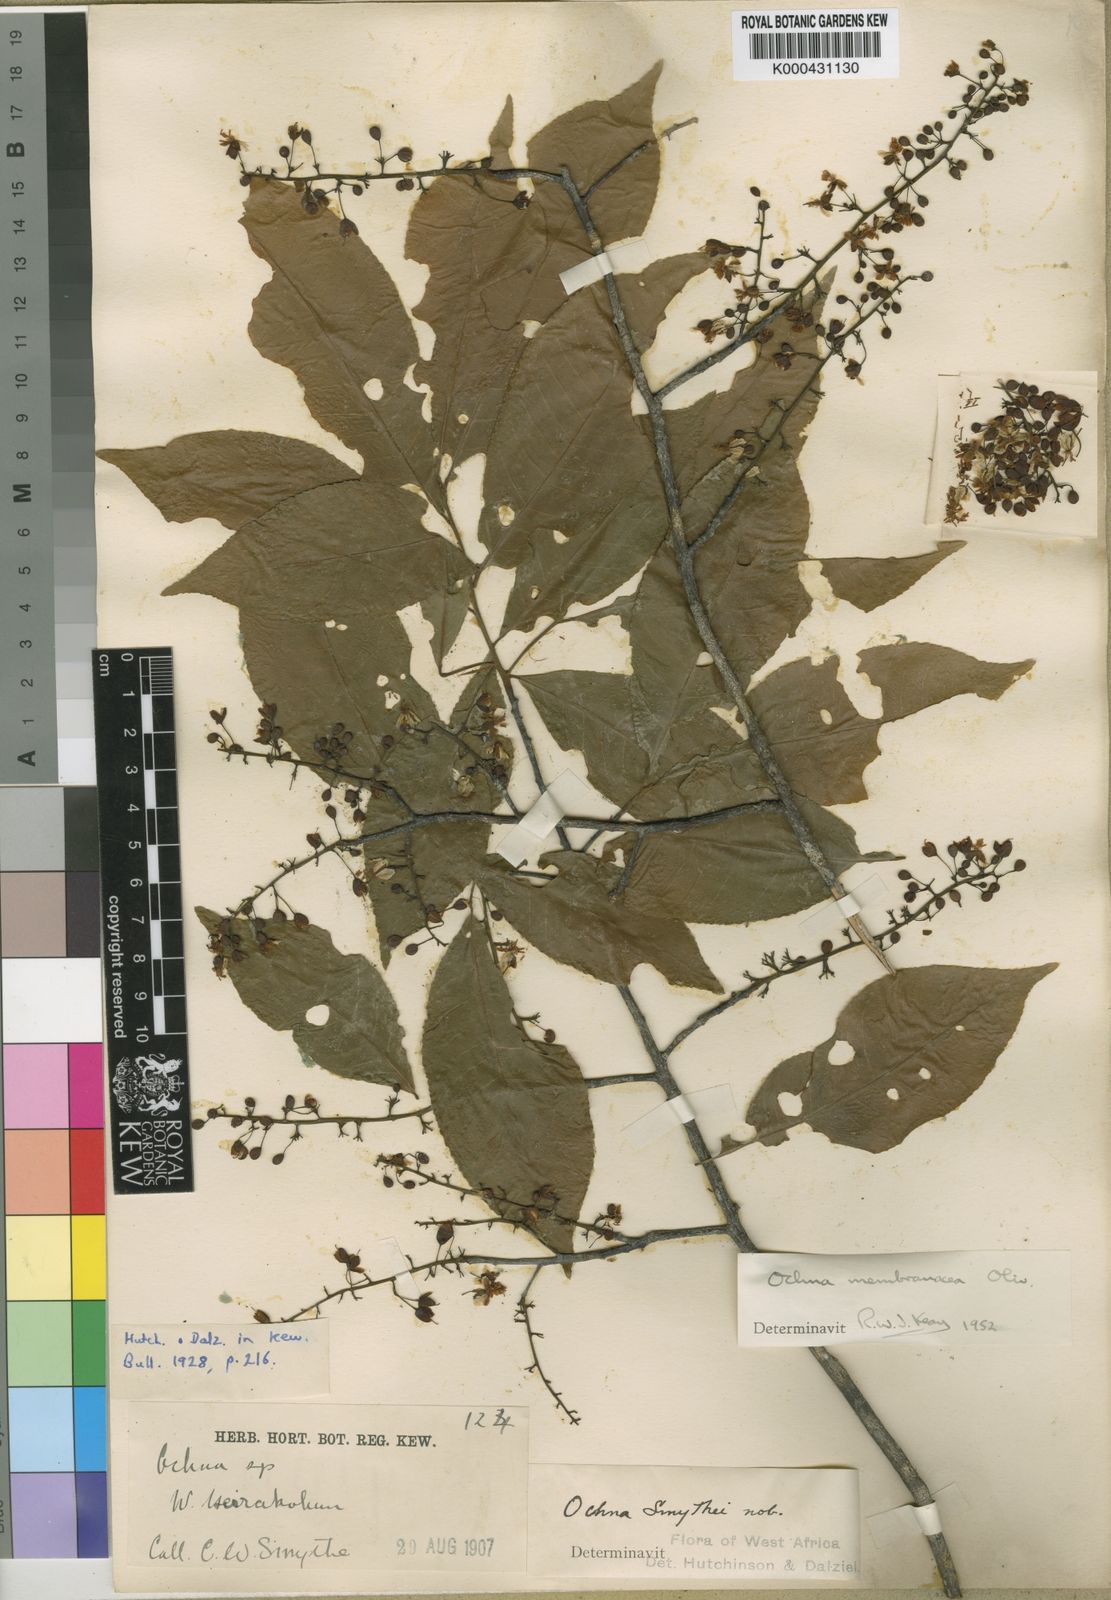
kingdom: Plantae
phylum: Tracheophyta
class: Magnoliopsida
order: Malpighiales
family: Ochnaceae
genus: Ochna
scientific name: Ochna membranacea
